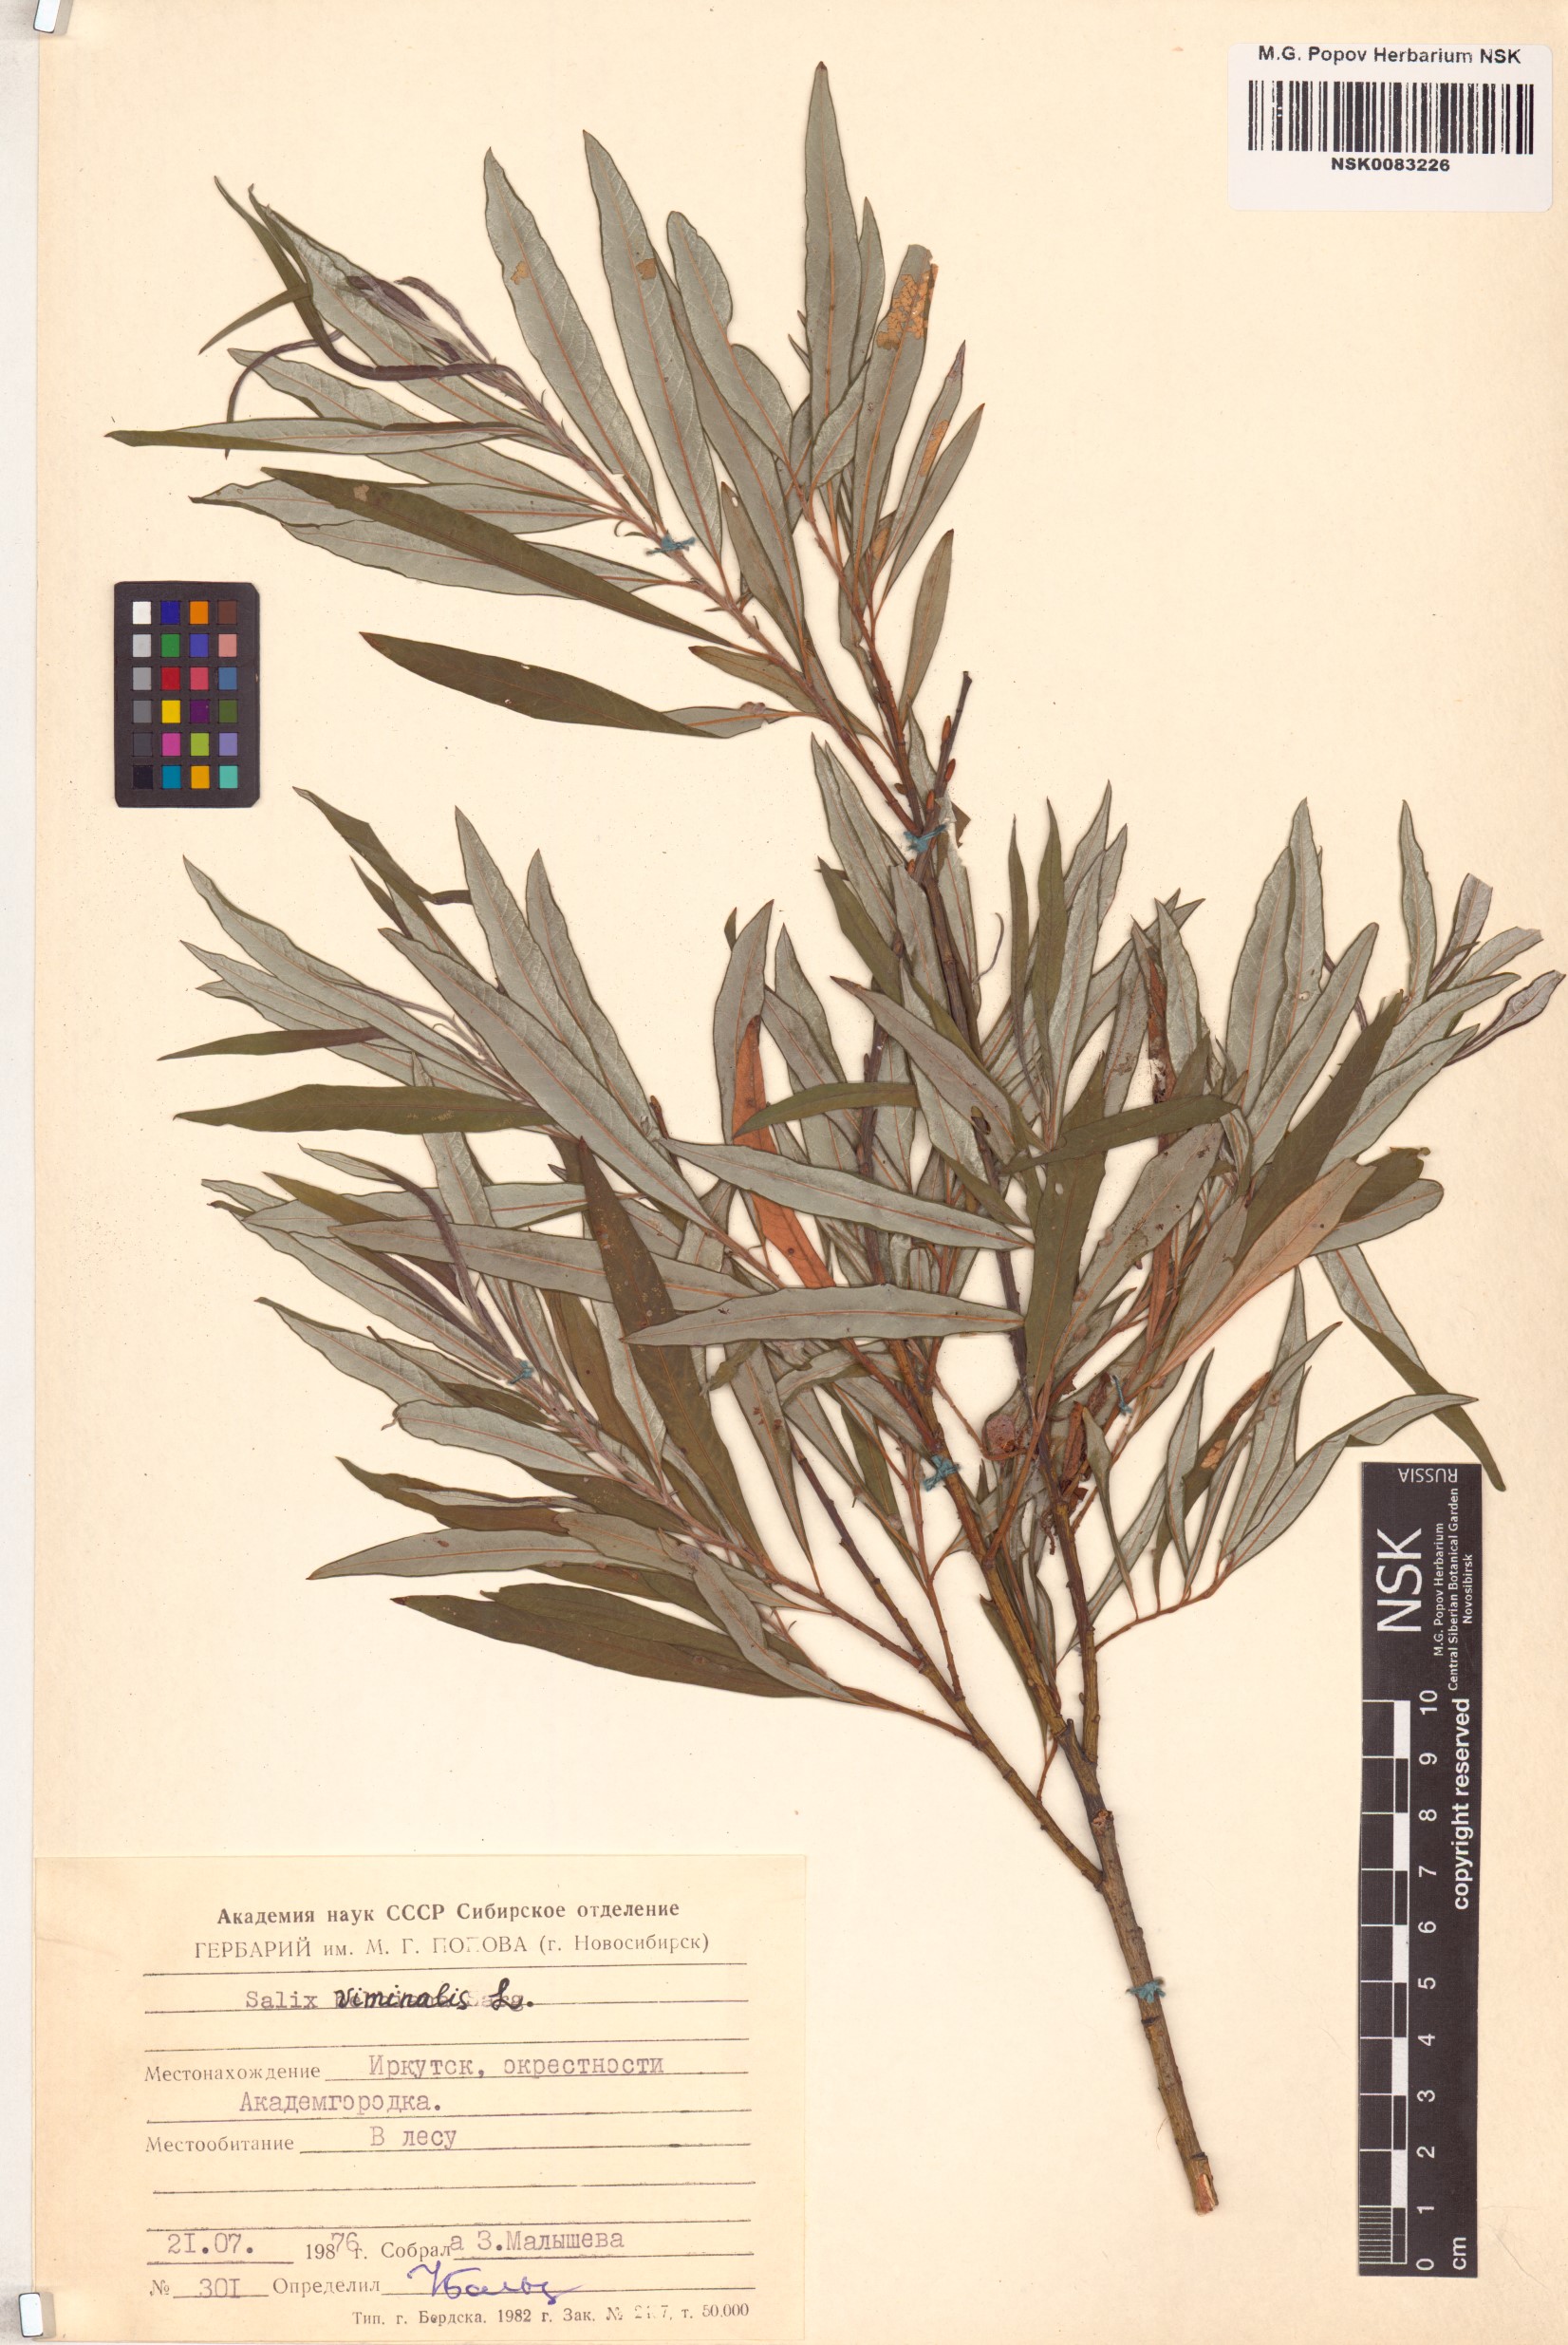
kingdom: Plantae
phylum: Tracheophyta
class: Magnoliopsida
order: Malpighiales
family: Salicaceae
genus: Salix
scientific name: Salix viminalis
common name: Osier
